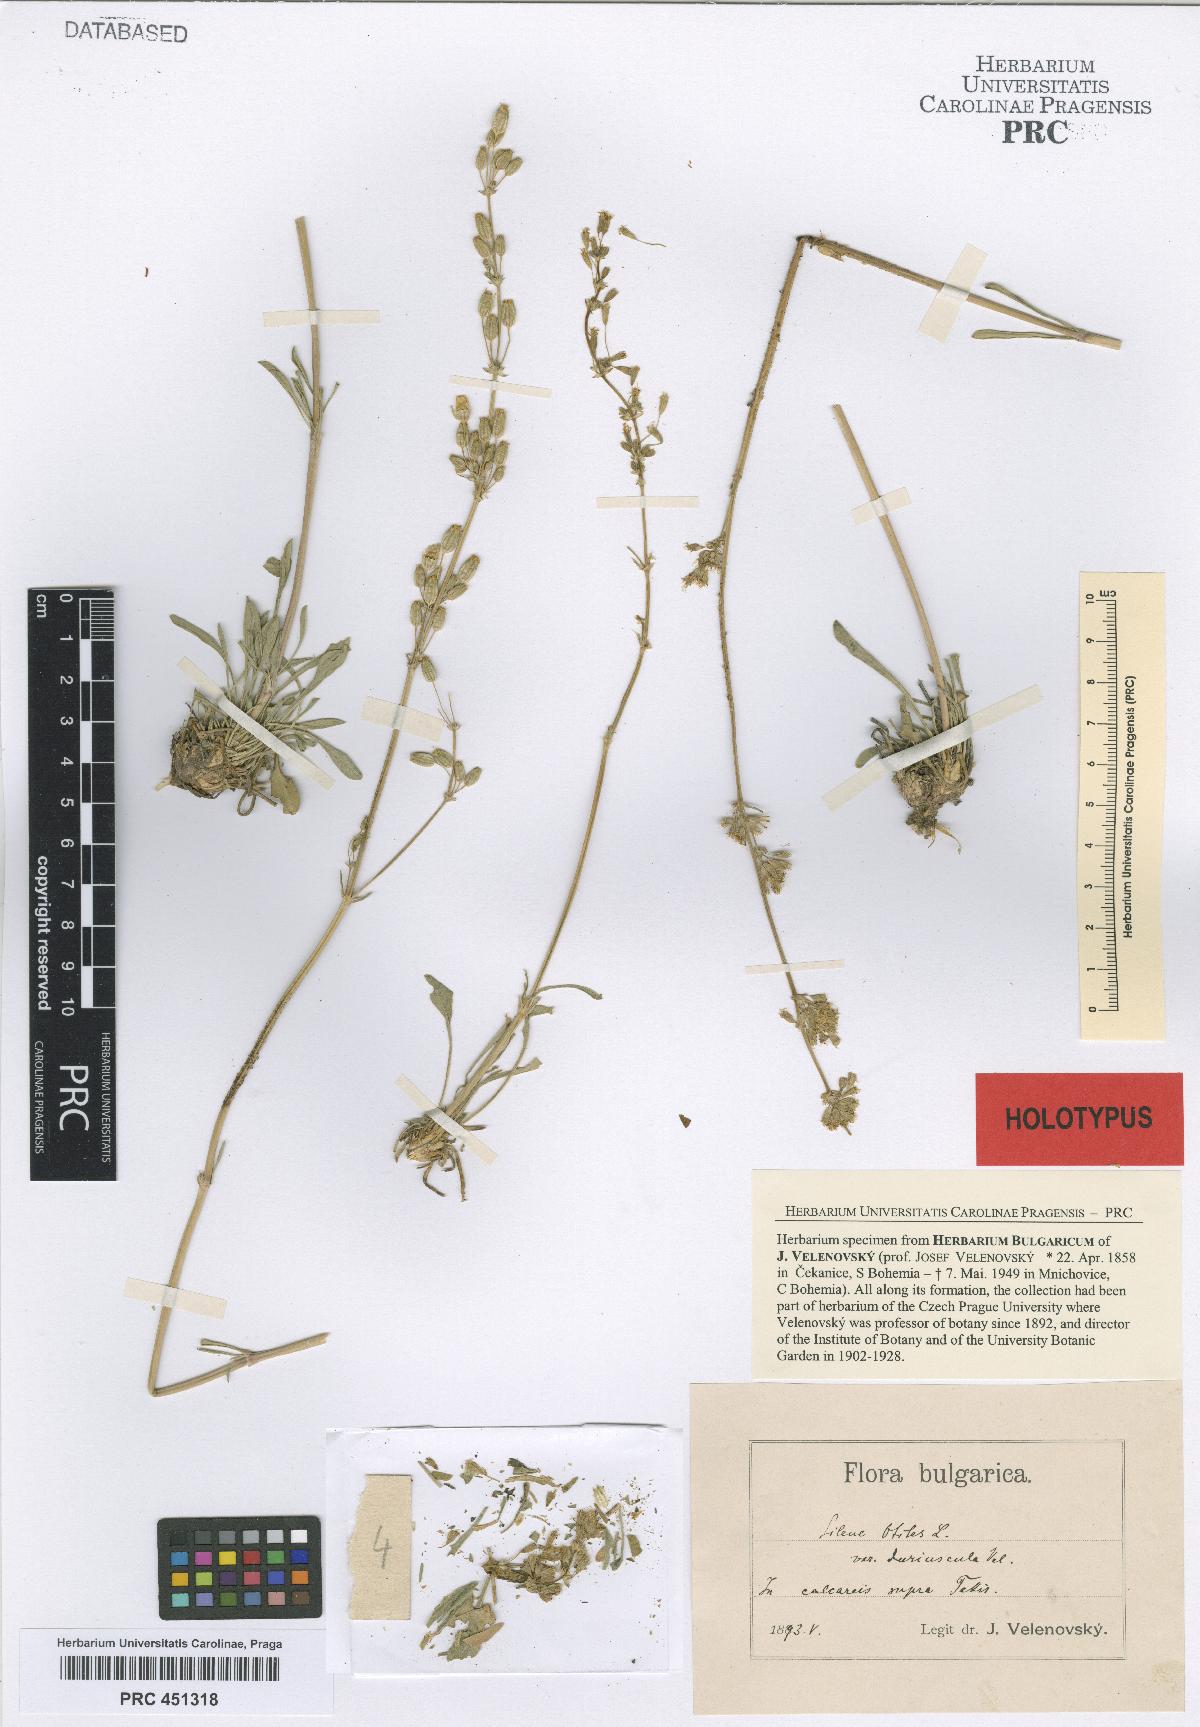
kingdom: Plantae
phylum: Tracheophyta
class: Magnoliopsida
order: Caryophyllales
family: Caryophyllaceae
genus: Silene
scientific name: Silene otites
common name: Spanish catchfly
